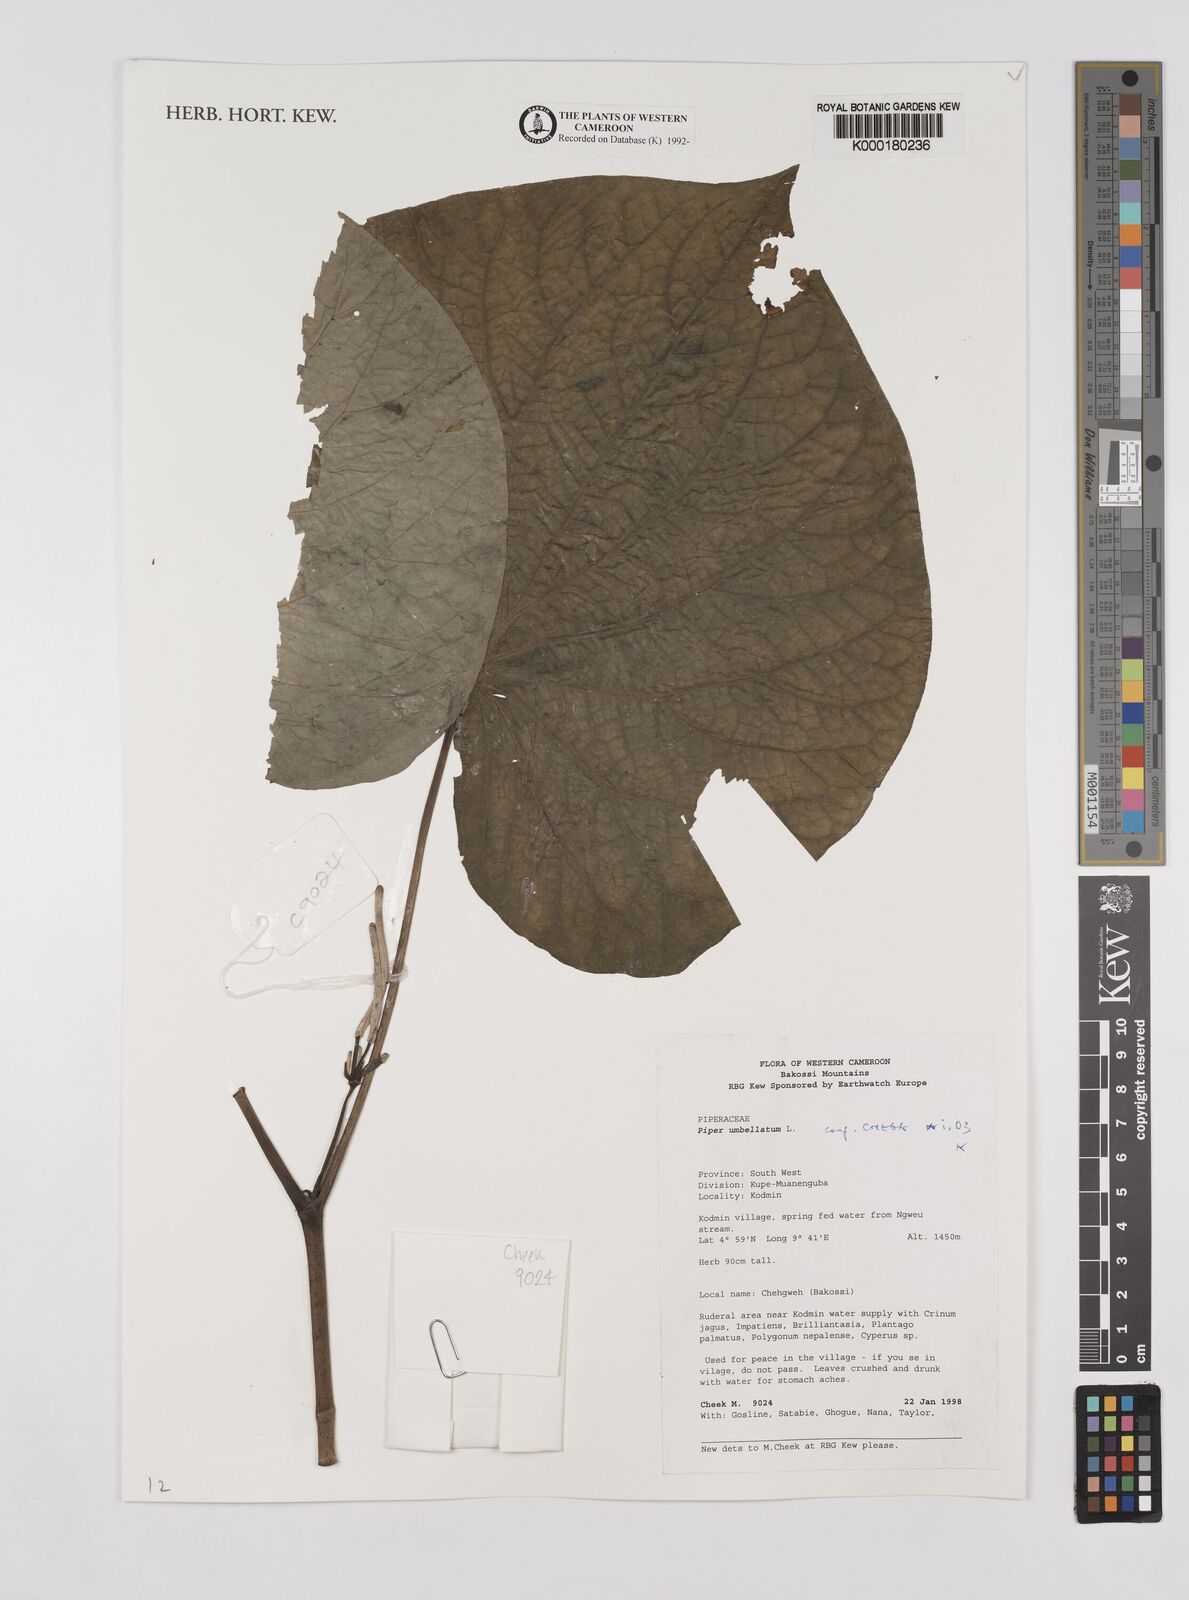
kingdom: Plantae
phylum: Tracheophyta
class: Magnoliopsida
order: Piperales
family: Piperaceae
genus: Piper
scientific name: Piper umbellatum
